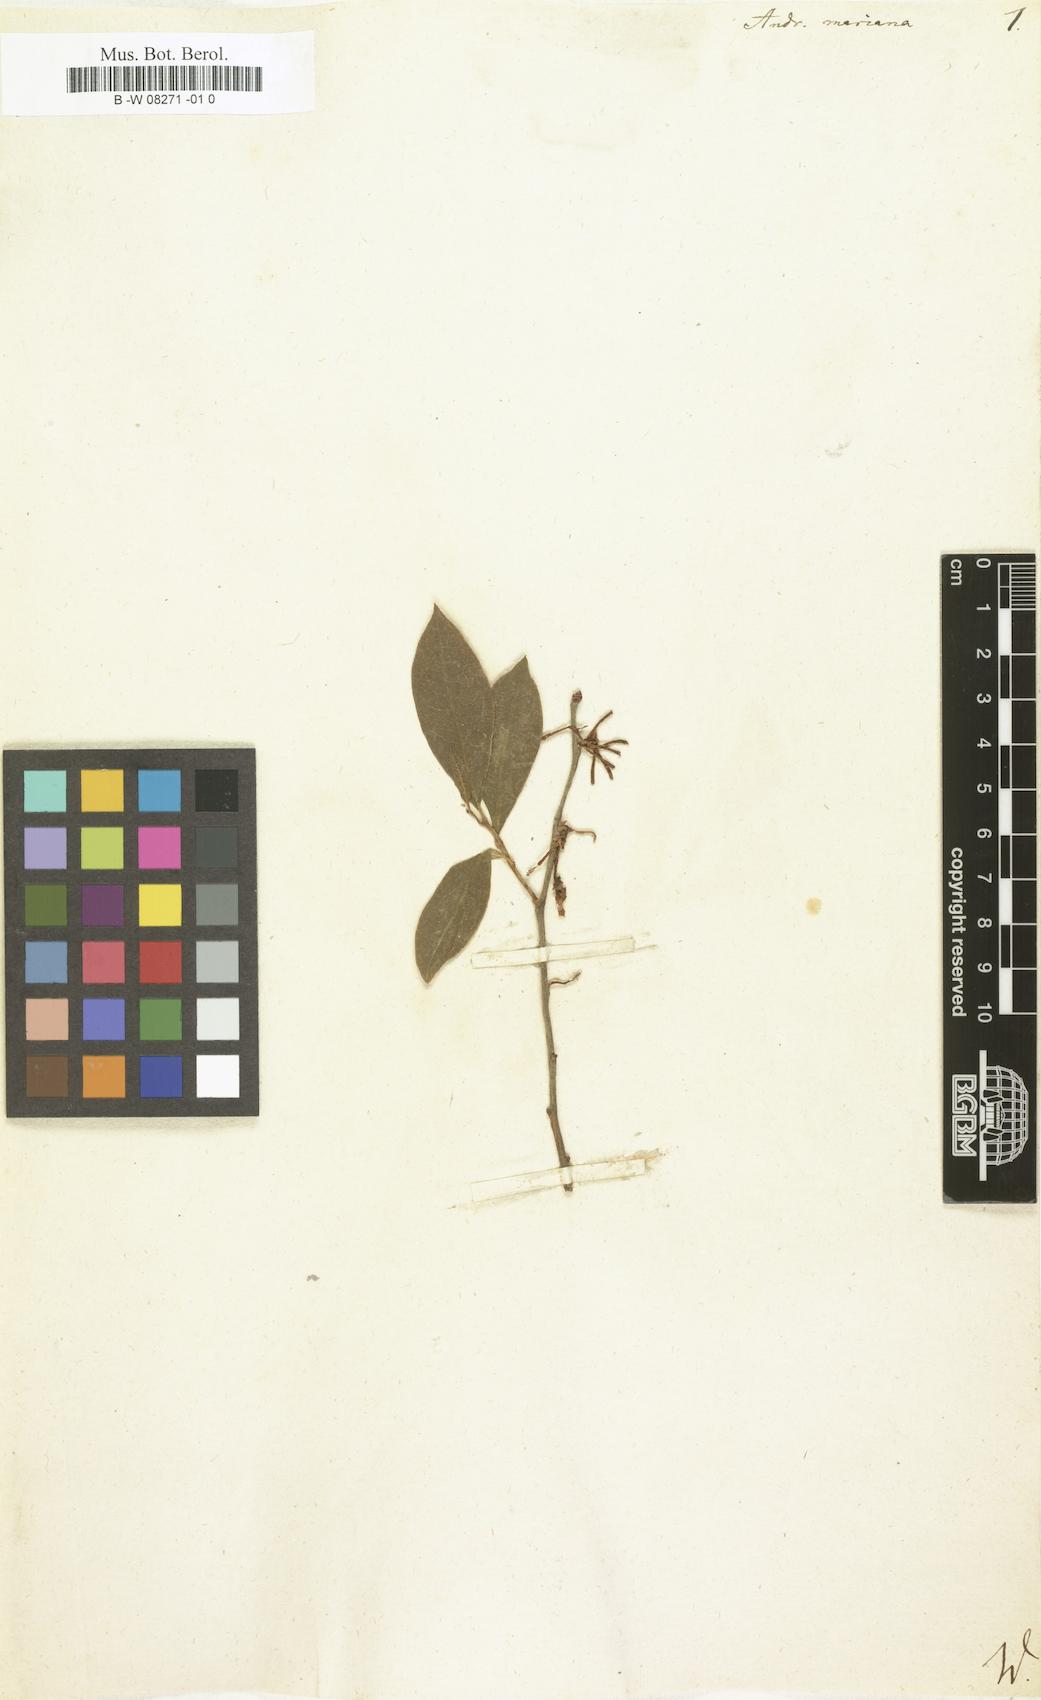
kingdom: Plantae
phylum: Tracheophyta
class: Magnoliopsida
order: Ericales
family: Ericaceae
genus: Lyonia
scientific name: Lyonia mariana
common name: Staggerbush
